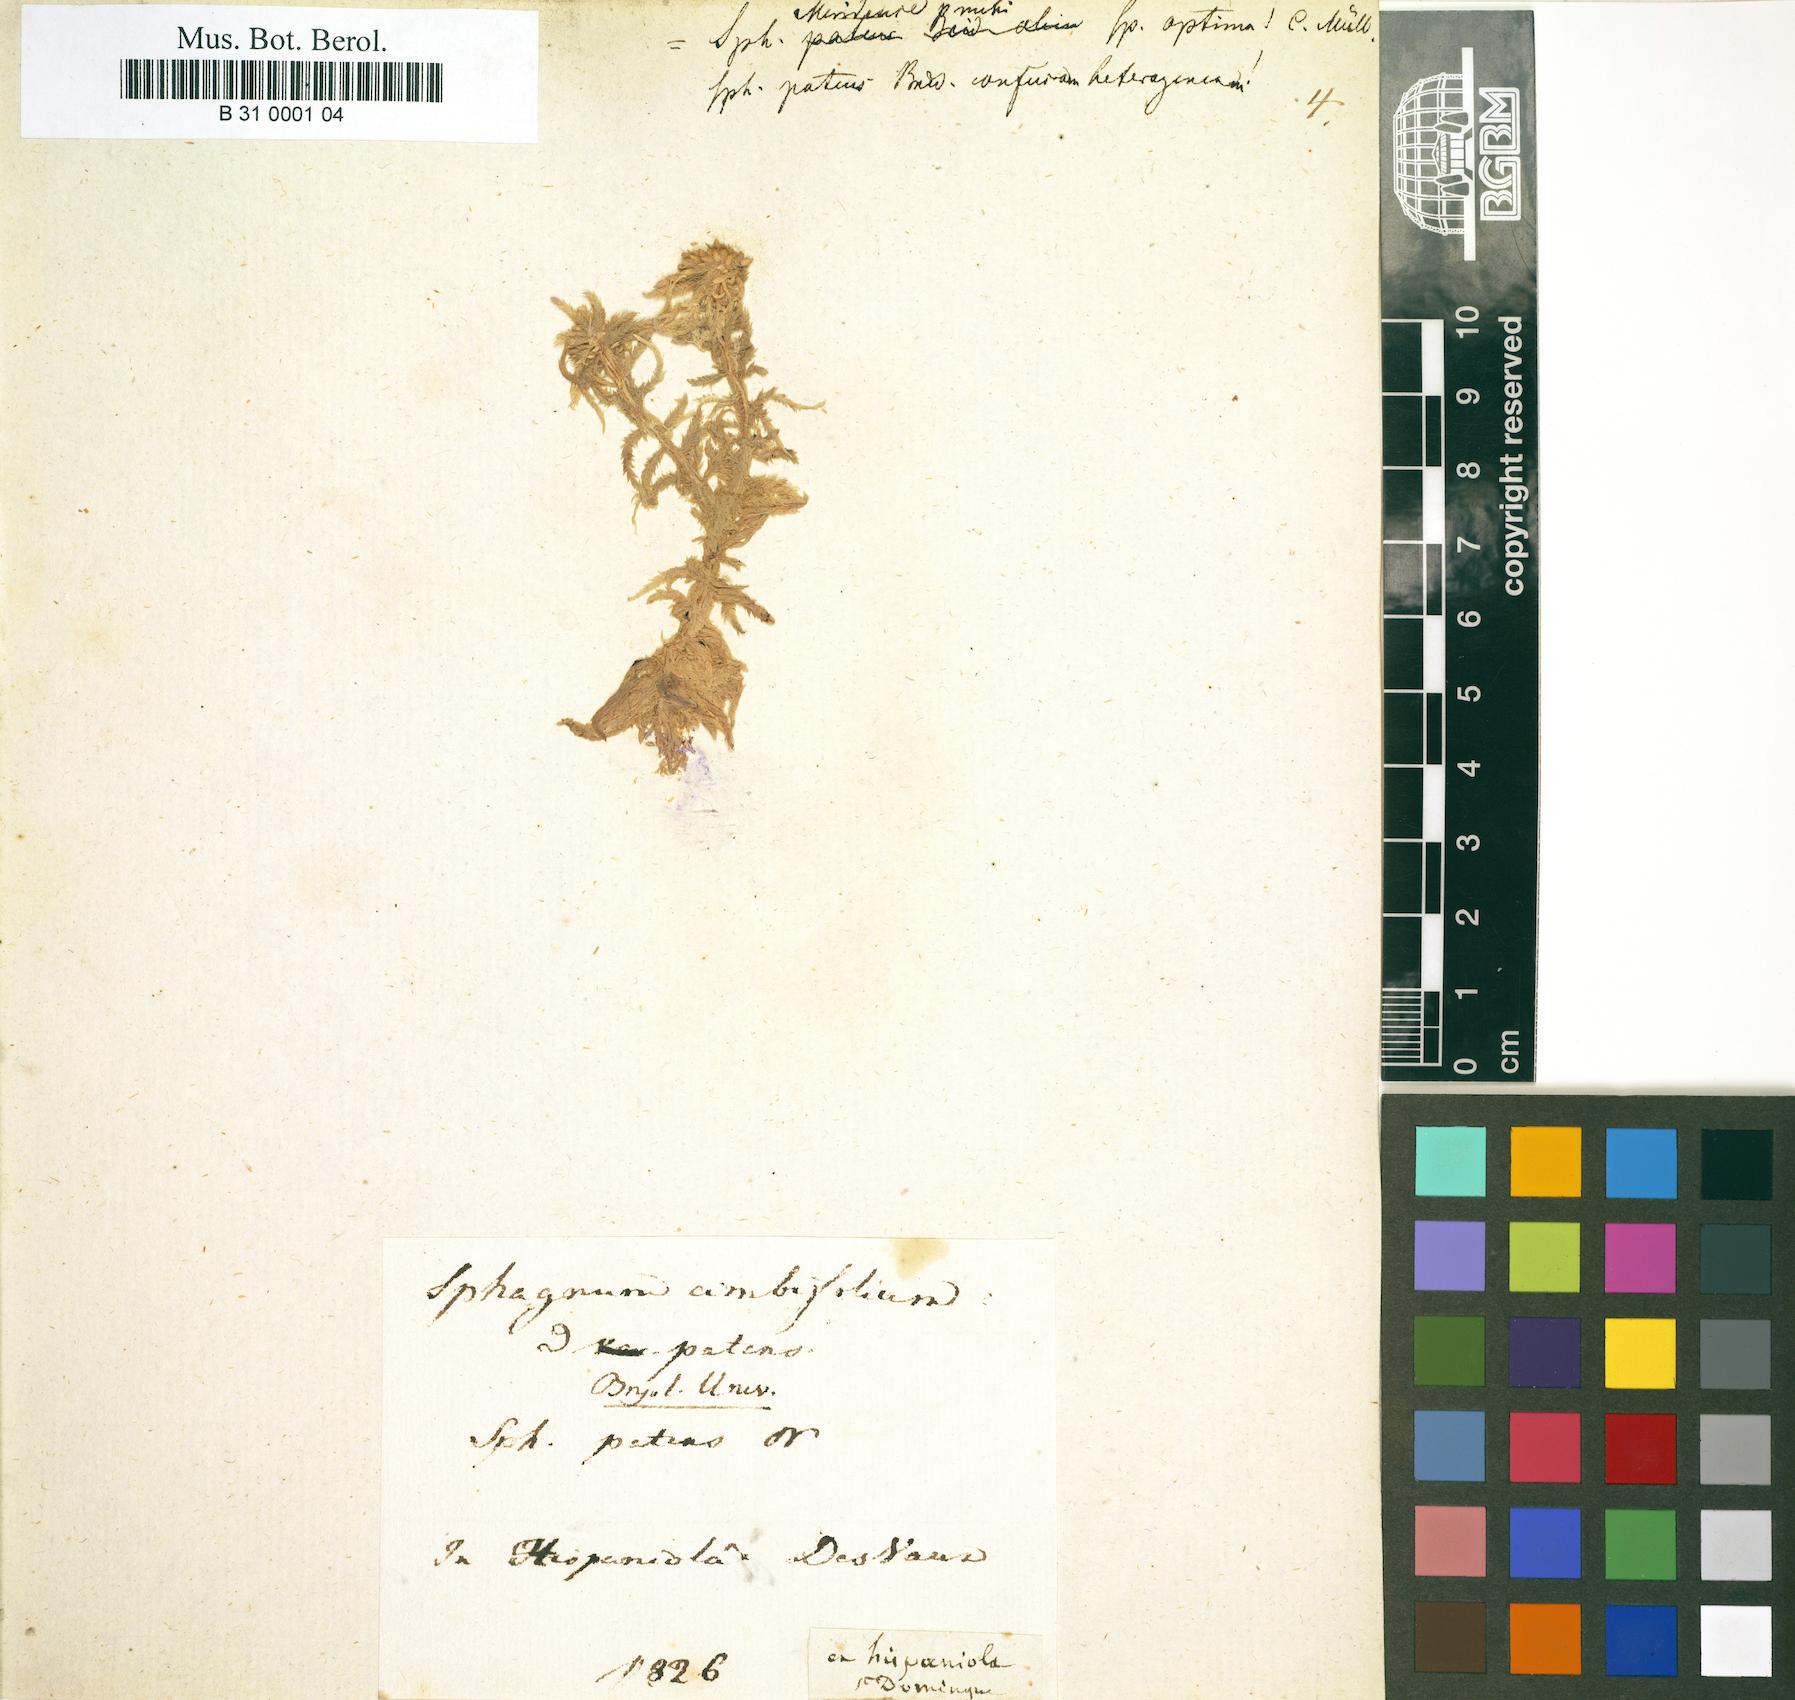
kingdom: Plantae
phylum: Bryophyta
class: Sphagnopsida
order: Sphagnales
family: Sphagnaceae
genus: Sphagnum
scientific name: Sphagnum perichaetiale
